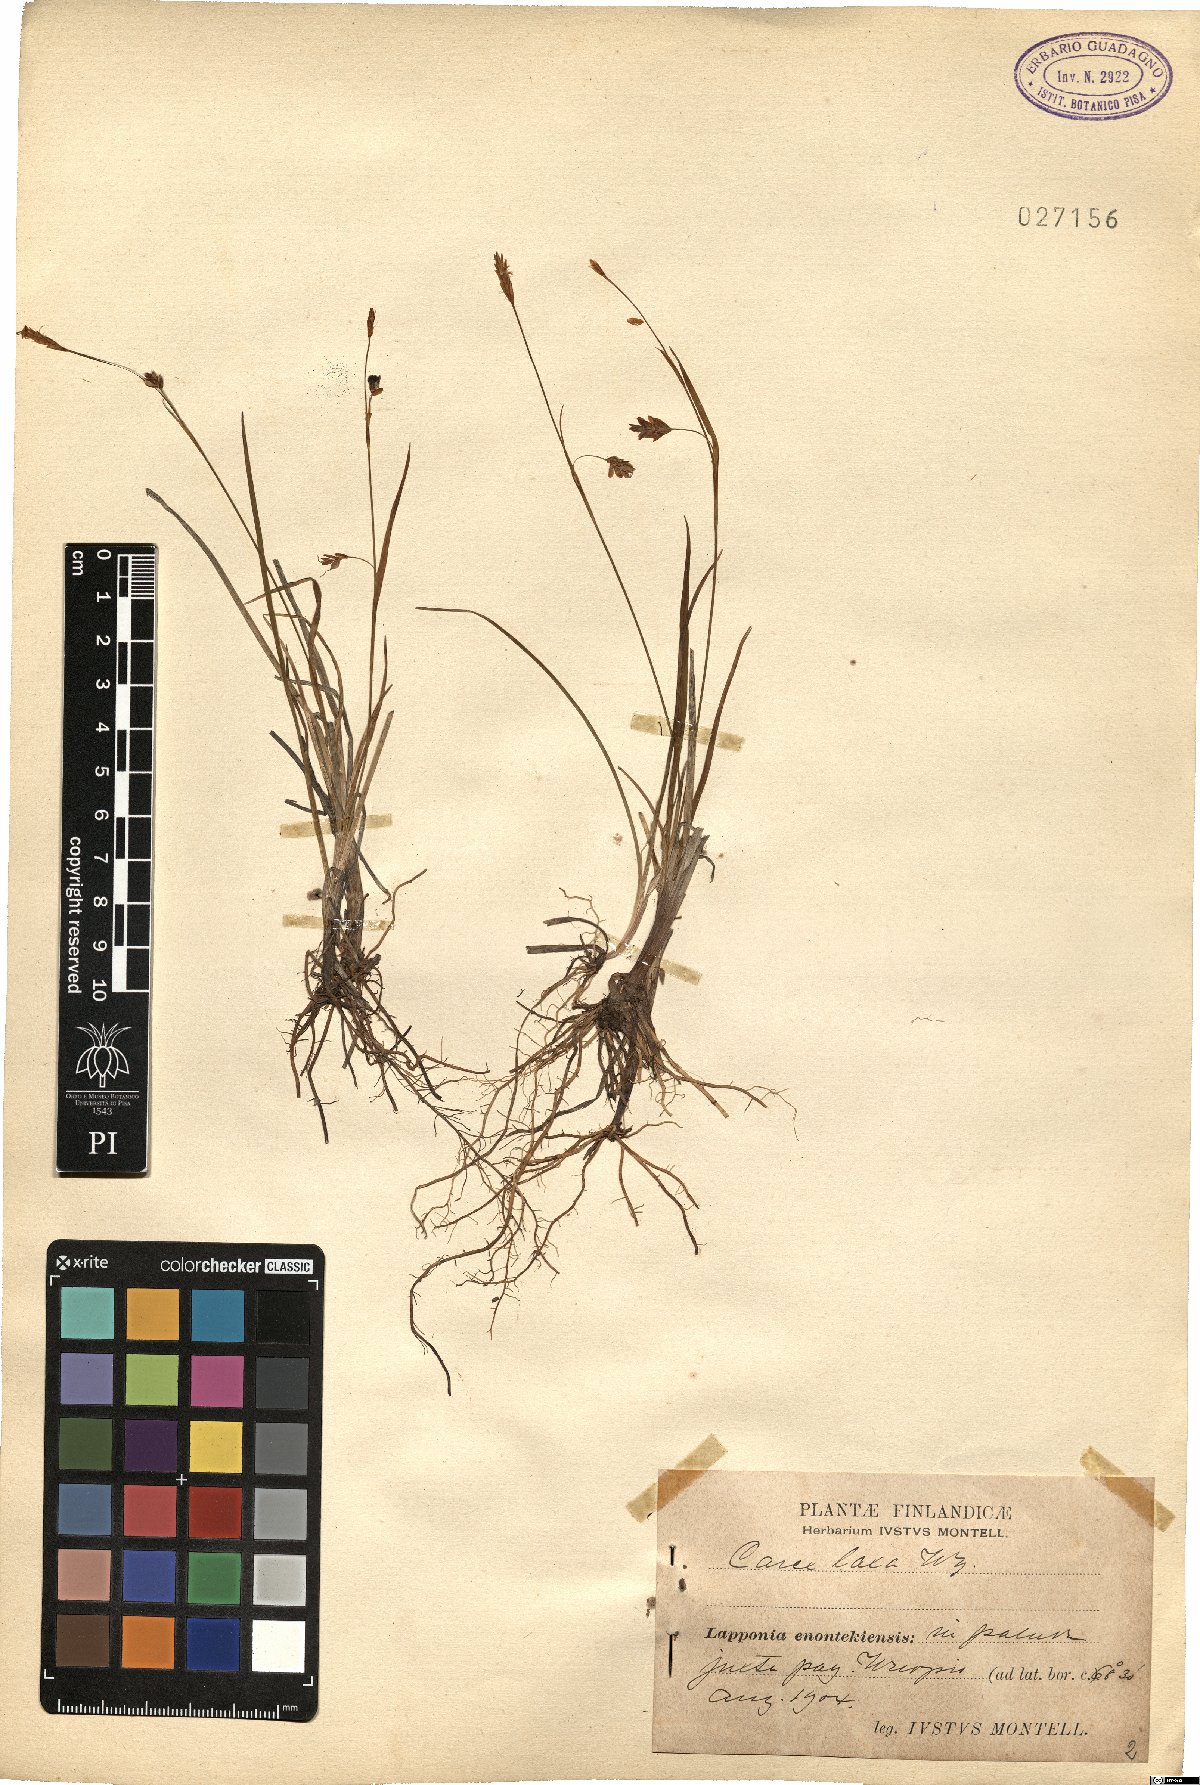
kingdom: Plantae
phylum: Tracheophyta
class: Liliopsida
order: Poales
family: Cyperaceae
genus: Carex
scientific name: Carex laxa
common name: Weak sedge
